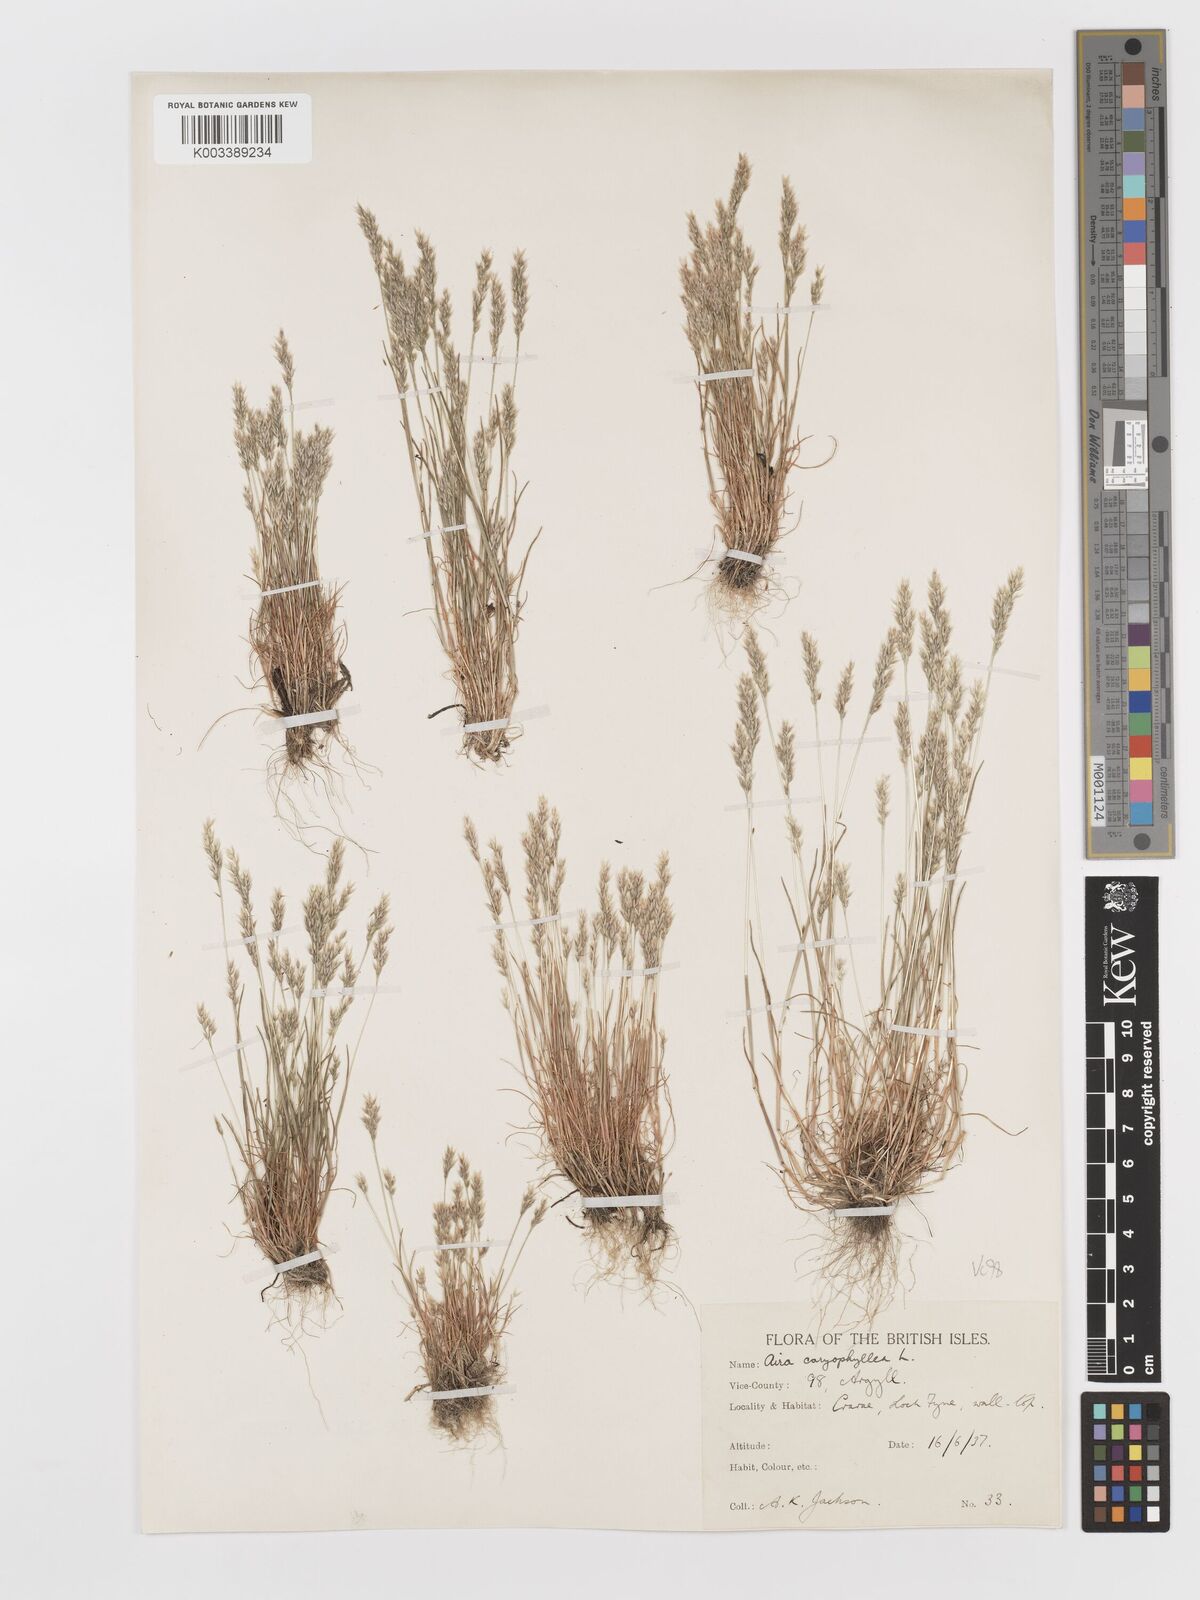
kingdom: Plantae
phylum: Tracheophyta
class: Liliopsida
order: Poales
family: Poaceae
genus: Aira
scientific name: Aira praecox
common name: Early hair-grass
